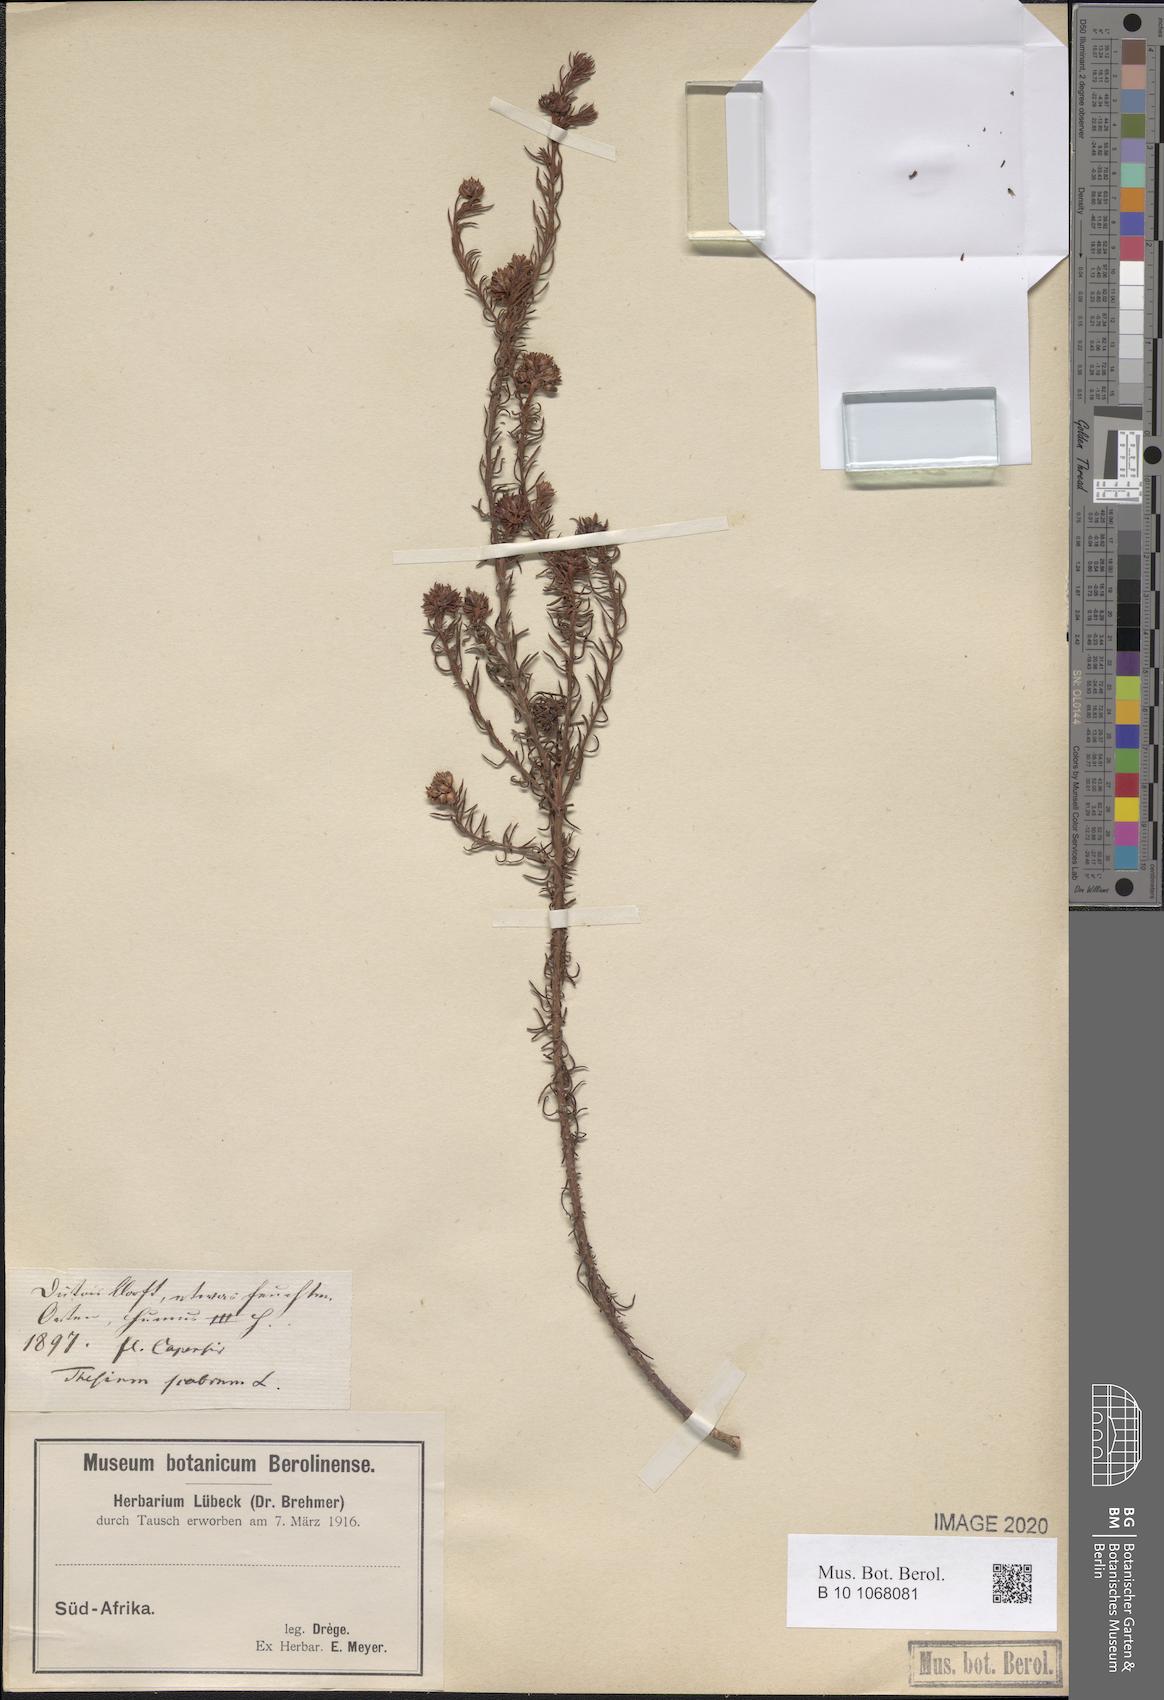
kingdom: Plantae
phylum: Tracheophyta
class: Magnoliopsida
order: Santalales
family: Thesiaceae
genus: Thesium
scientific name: Thesium scabrum
